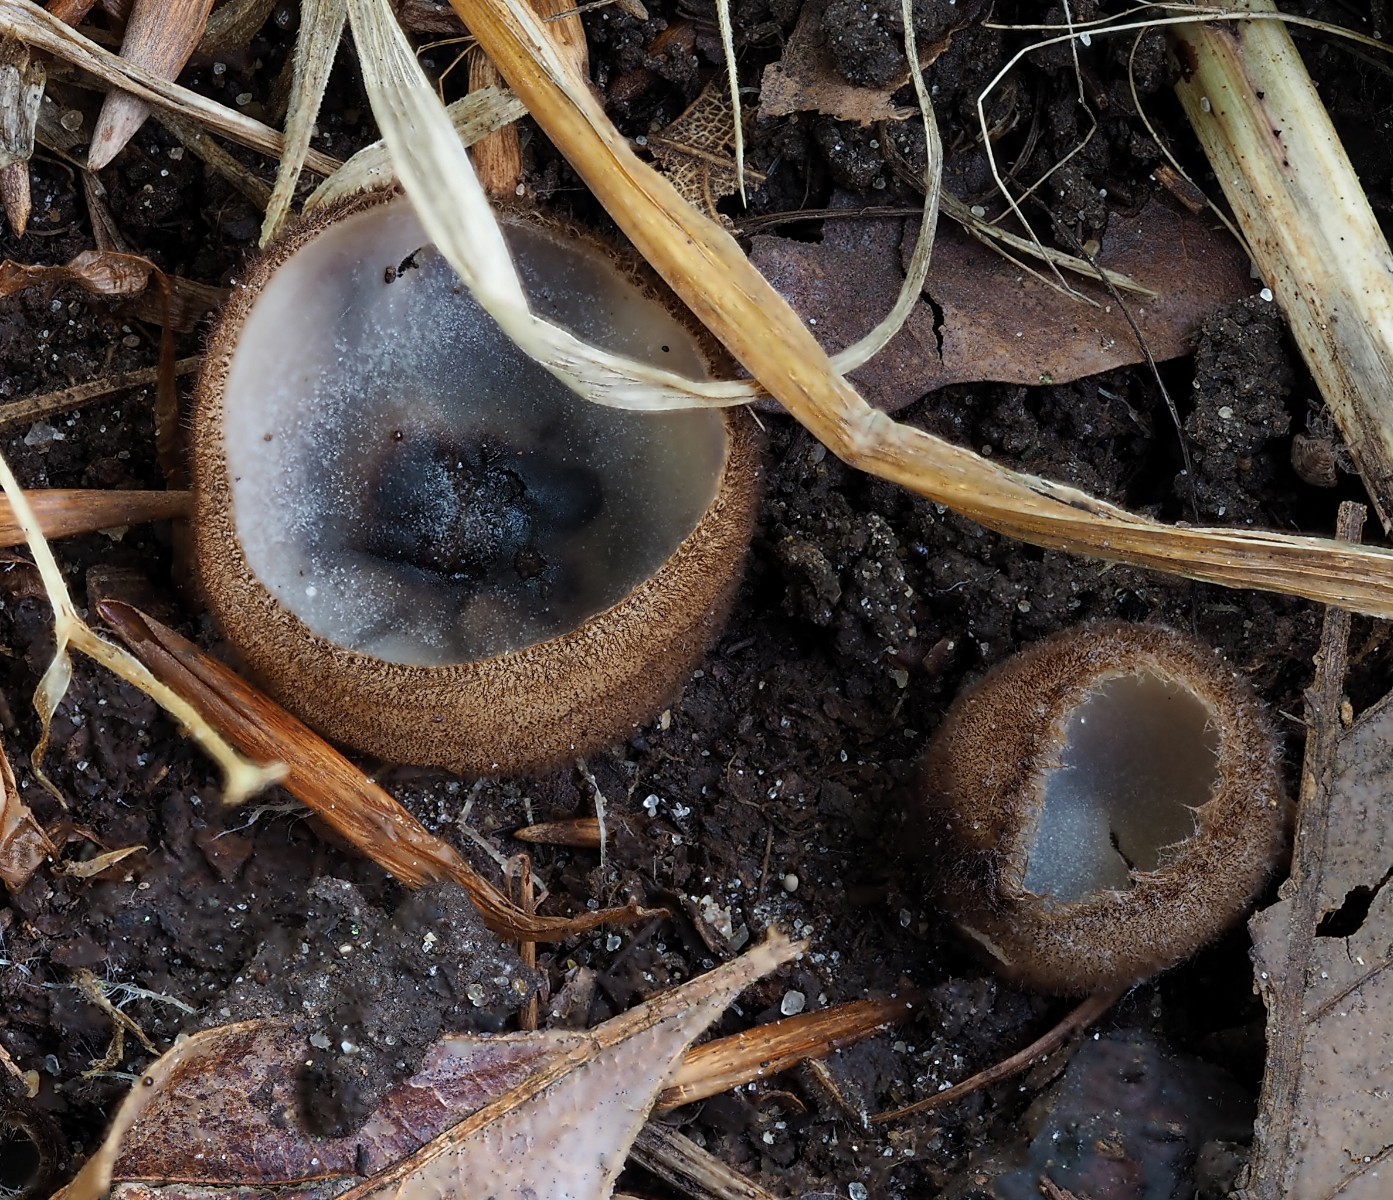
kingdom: Fungi
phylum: Ascomycota
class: Pezizomycetes
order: Pezizales
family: Pyronemataceae
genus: Humaria
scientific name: Humaria hemisphaerica
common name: halvkugleformet børstebæger
